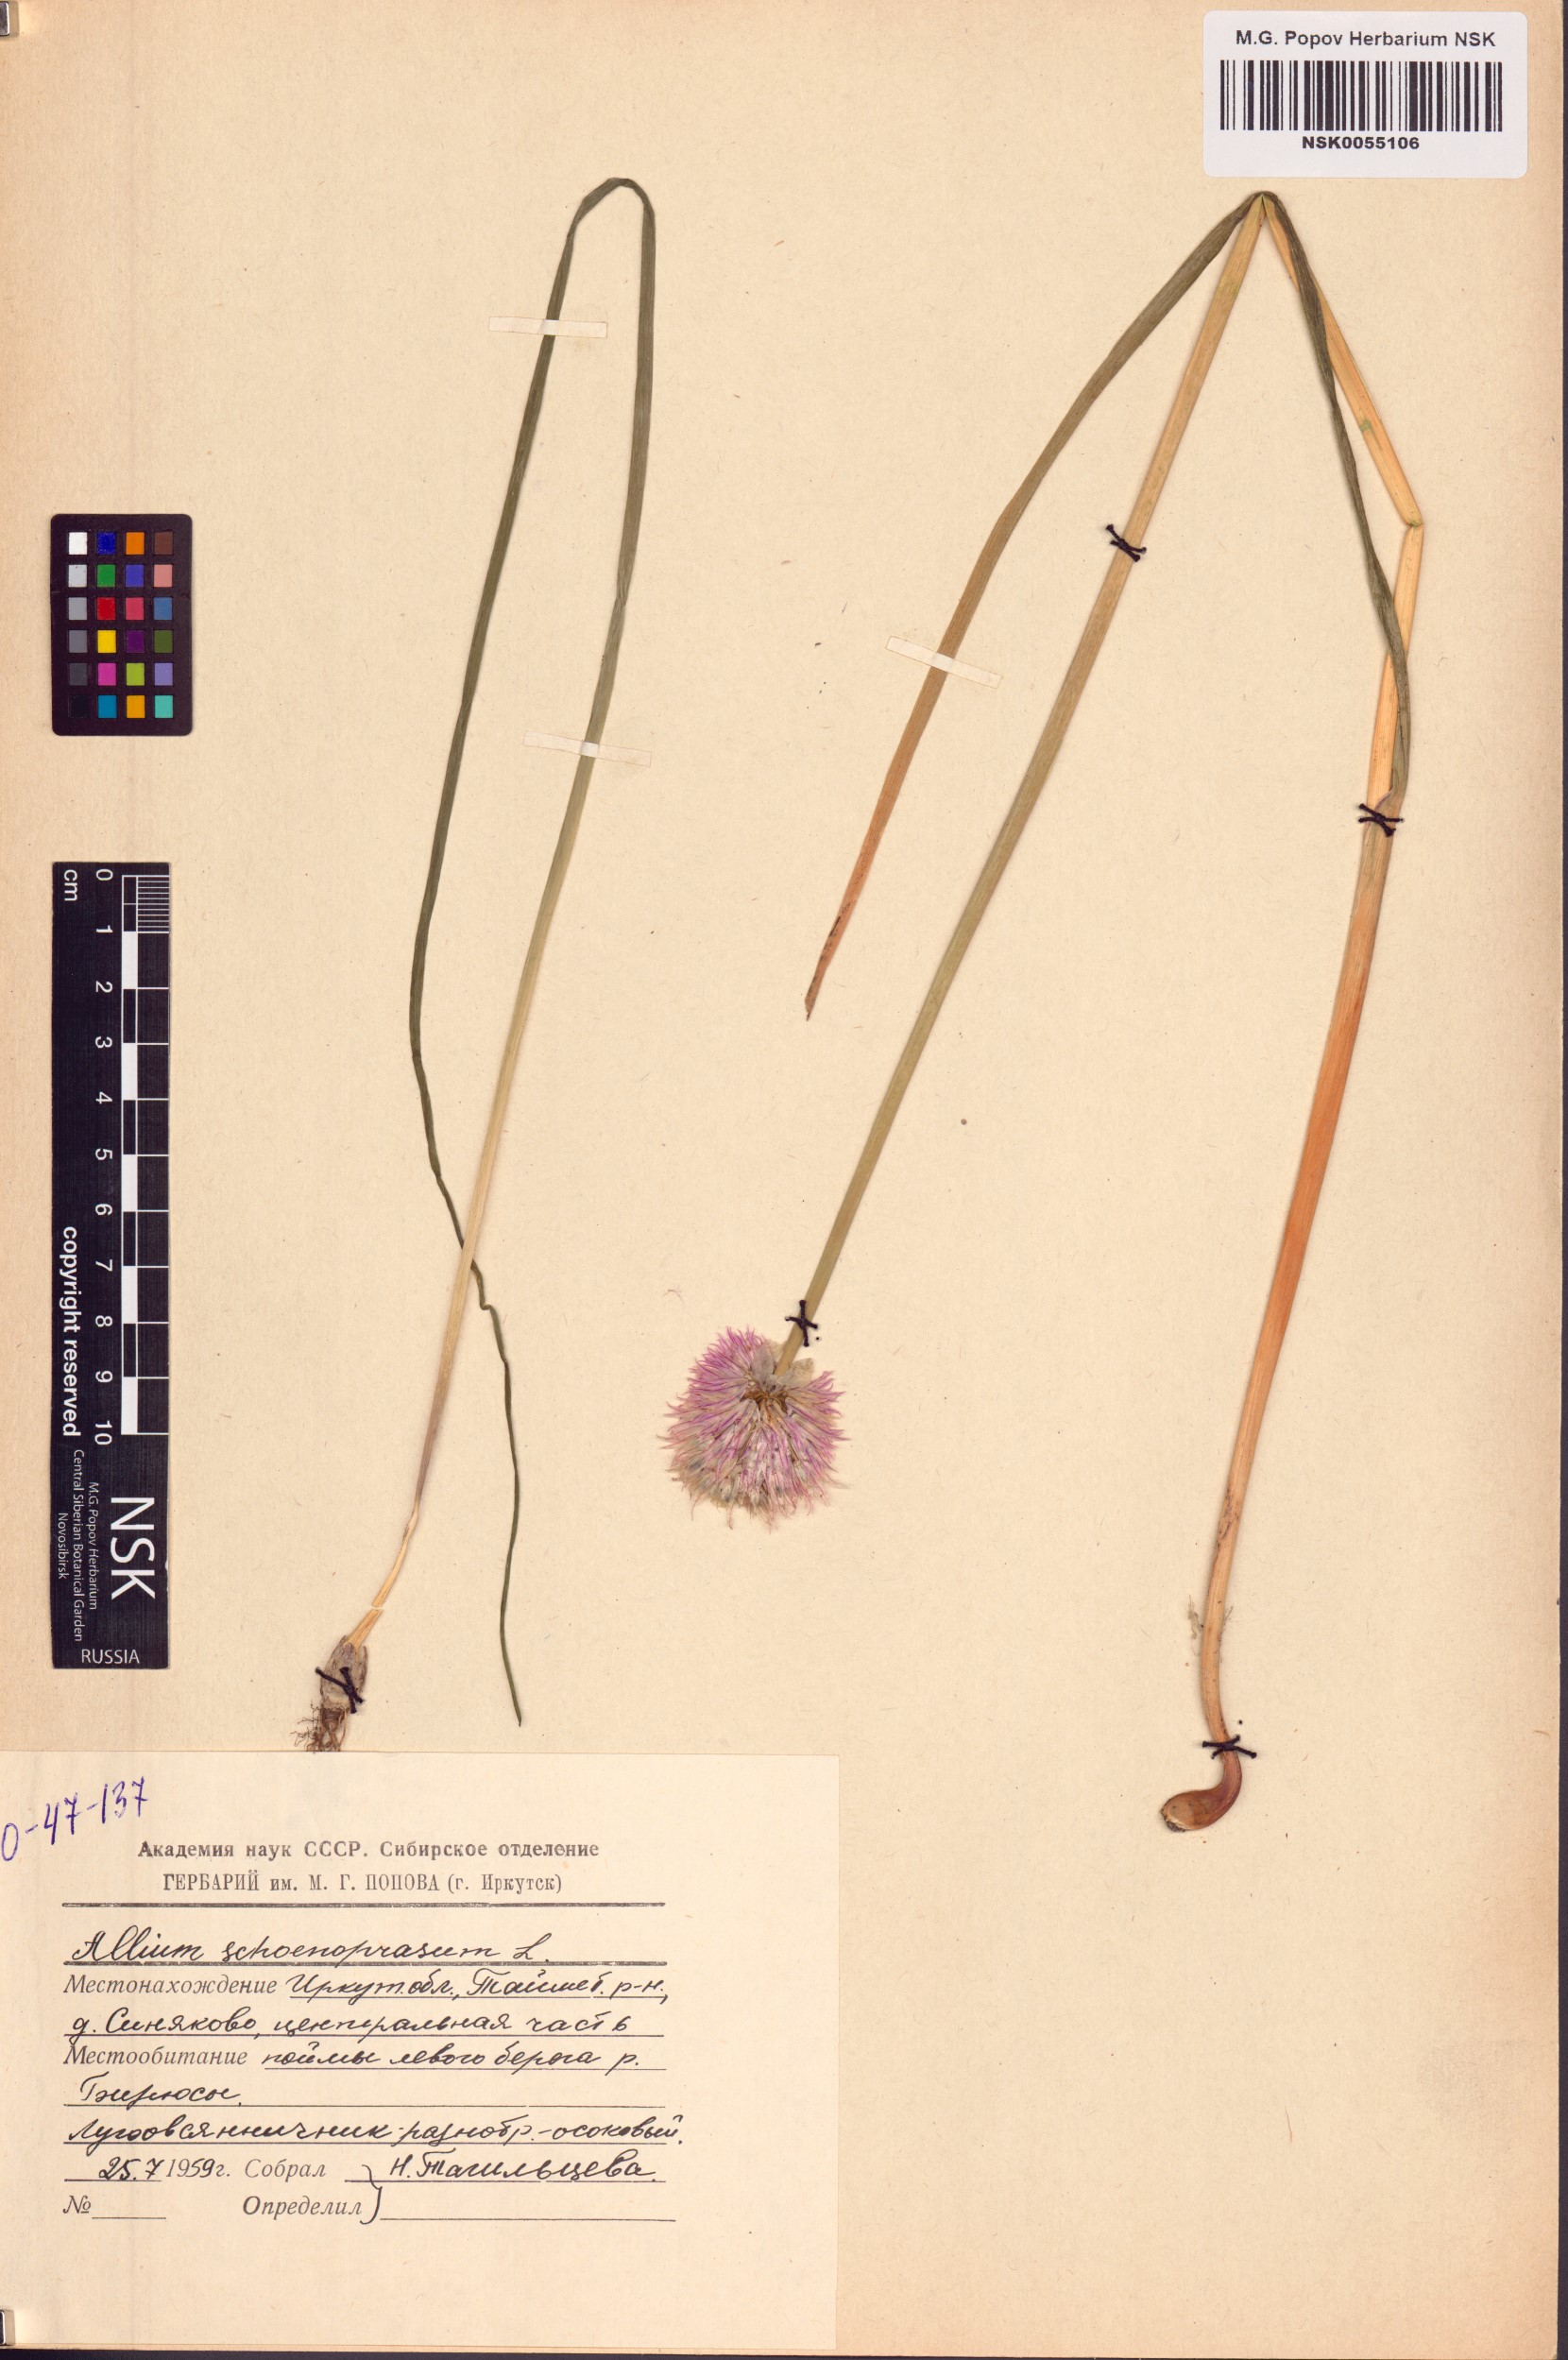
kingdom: Plantae
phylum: Tracheophyta
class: Liliopsida
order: Asparagales
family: Amaryllidaceae
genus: Allium
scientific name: Allium schoenoprasum
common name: Chives
